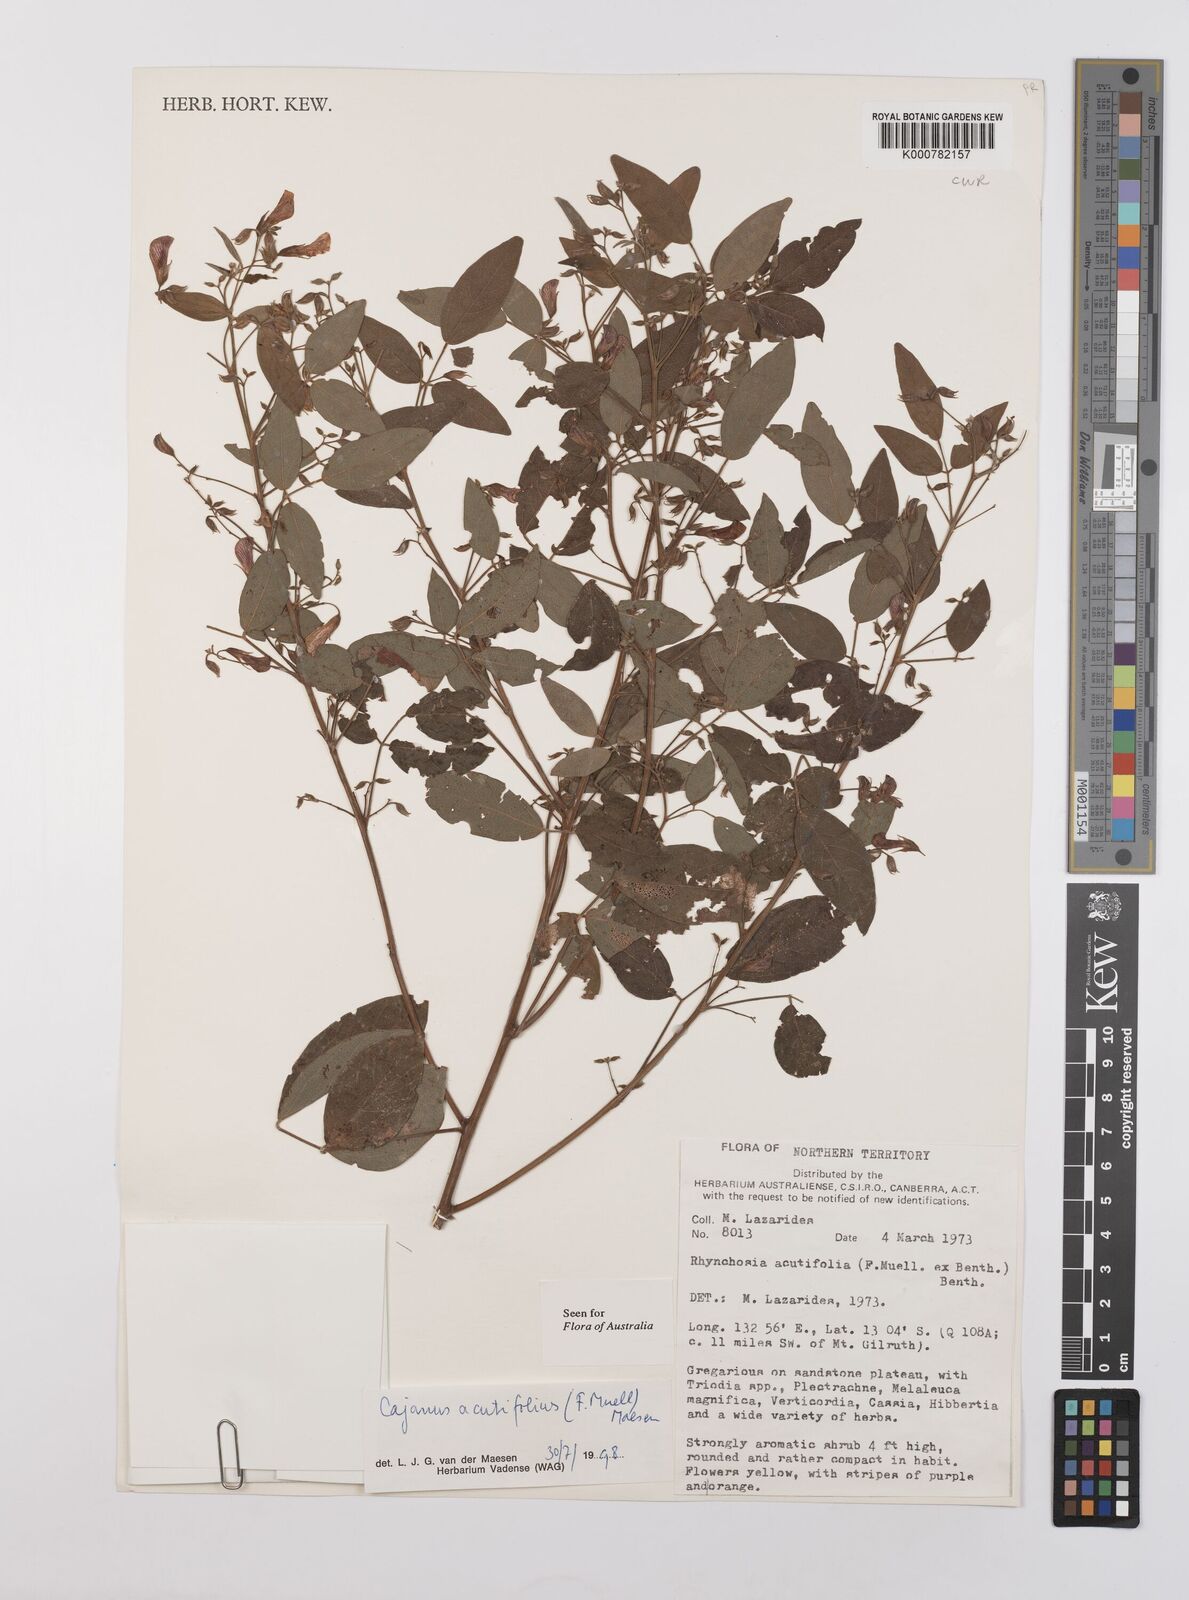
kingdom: Plantae
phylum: Tracheophyta
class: Magnoliopsida
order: Fabales
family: Fabaceae
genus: Cajanus
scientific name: Cajanus acutifolius
